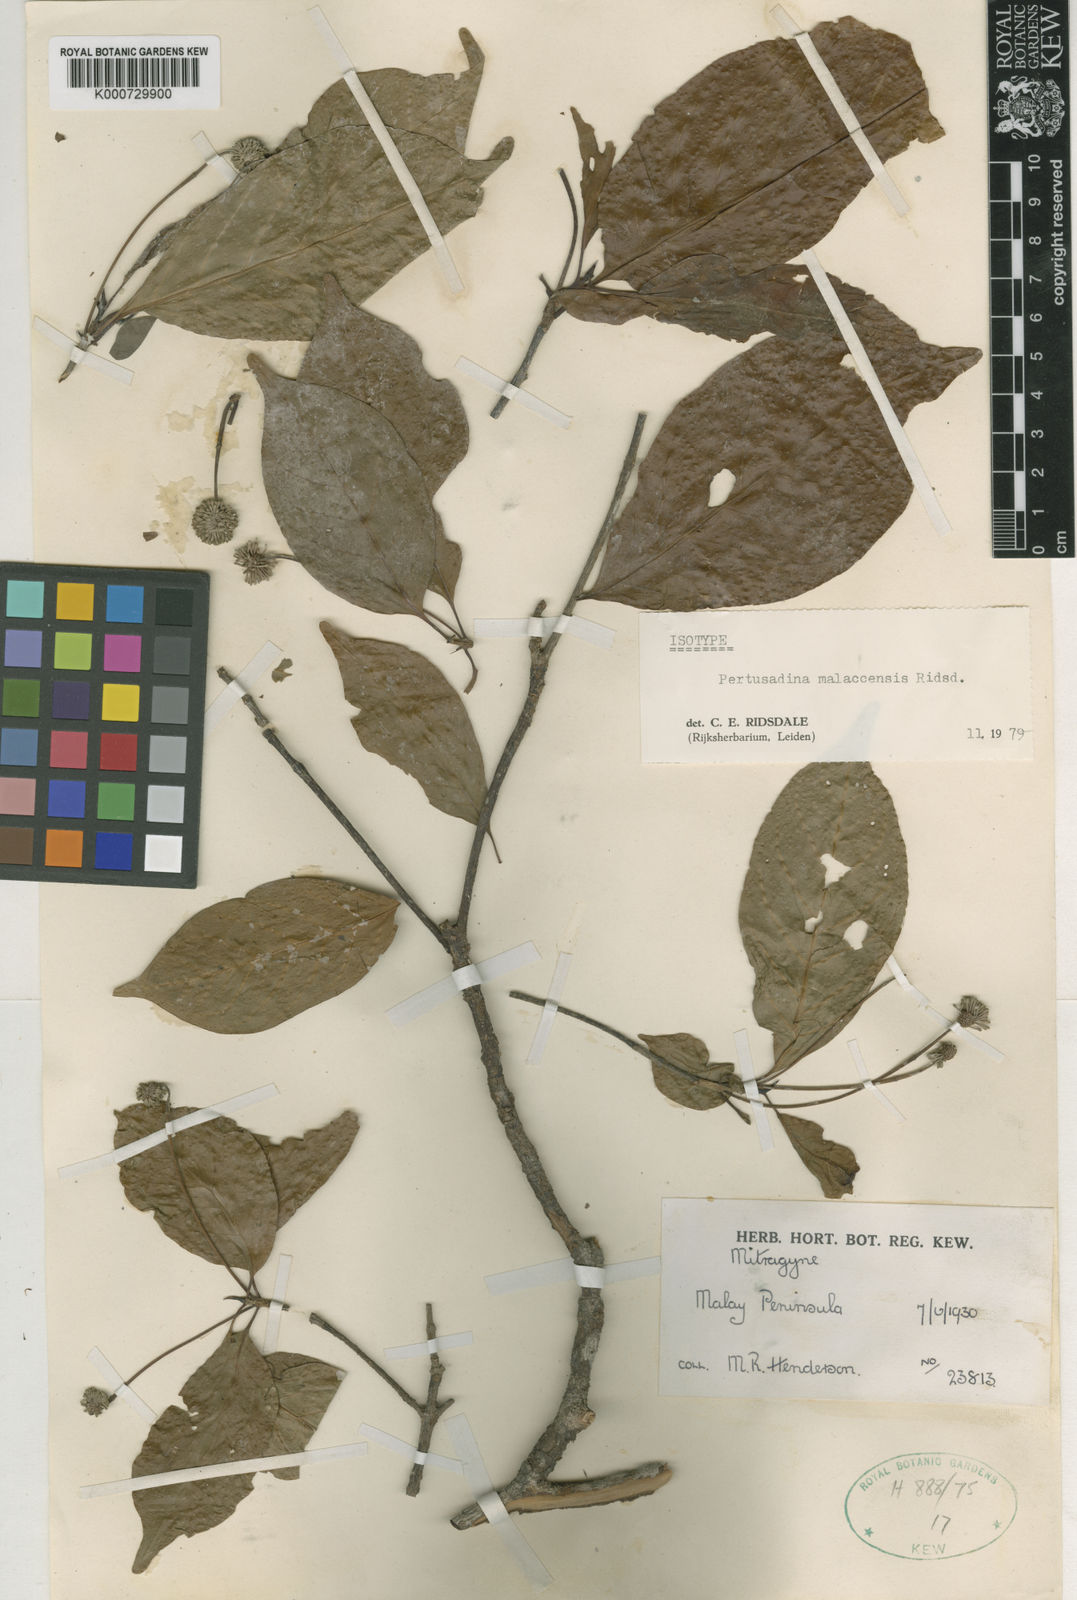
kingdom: Plantae
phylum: Tracheophyta
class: Magnoliopsida
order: Gentianales
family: Rubiaceae
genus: Adina
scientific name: Adina malaccensis
